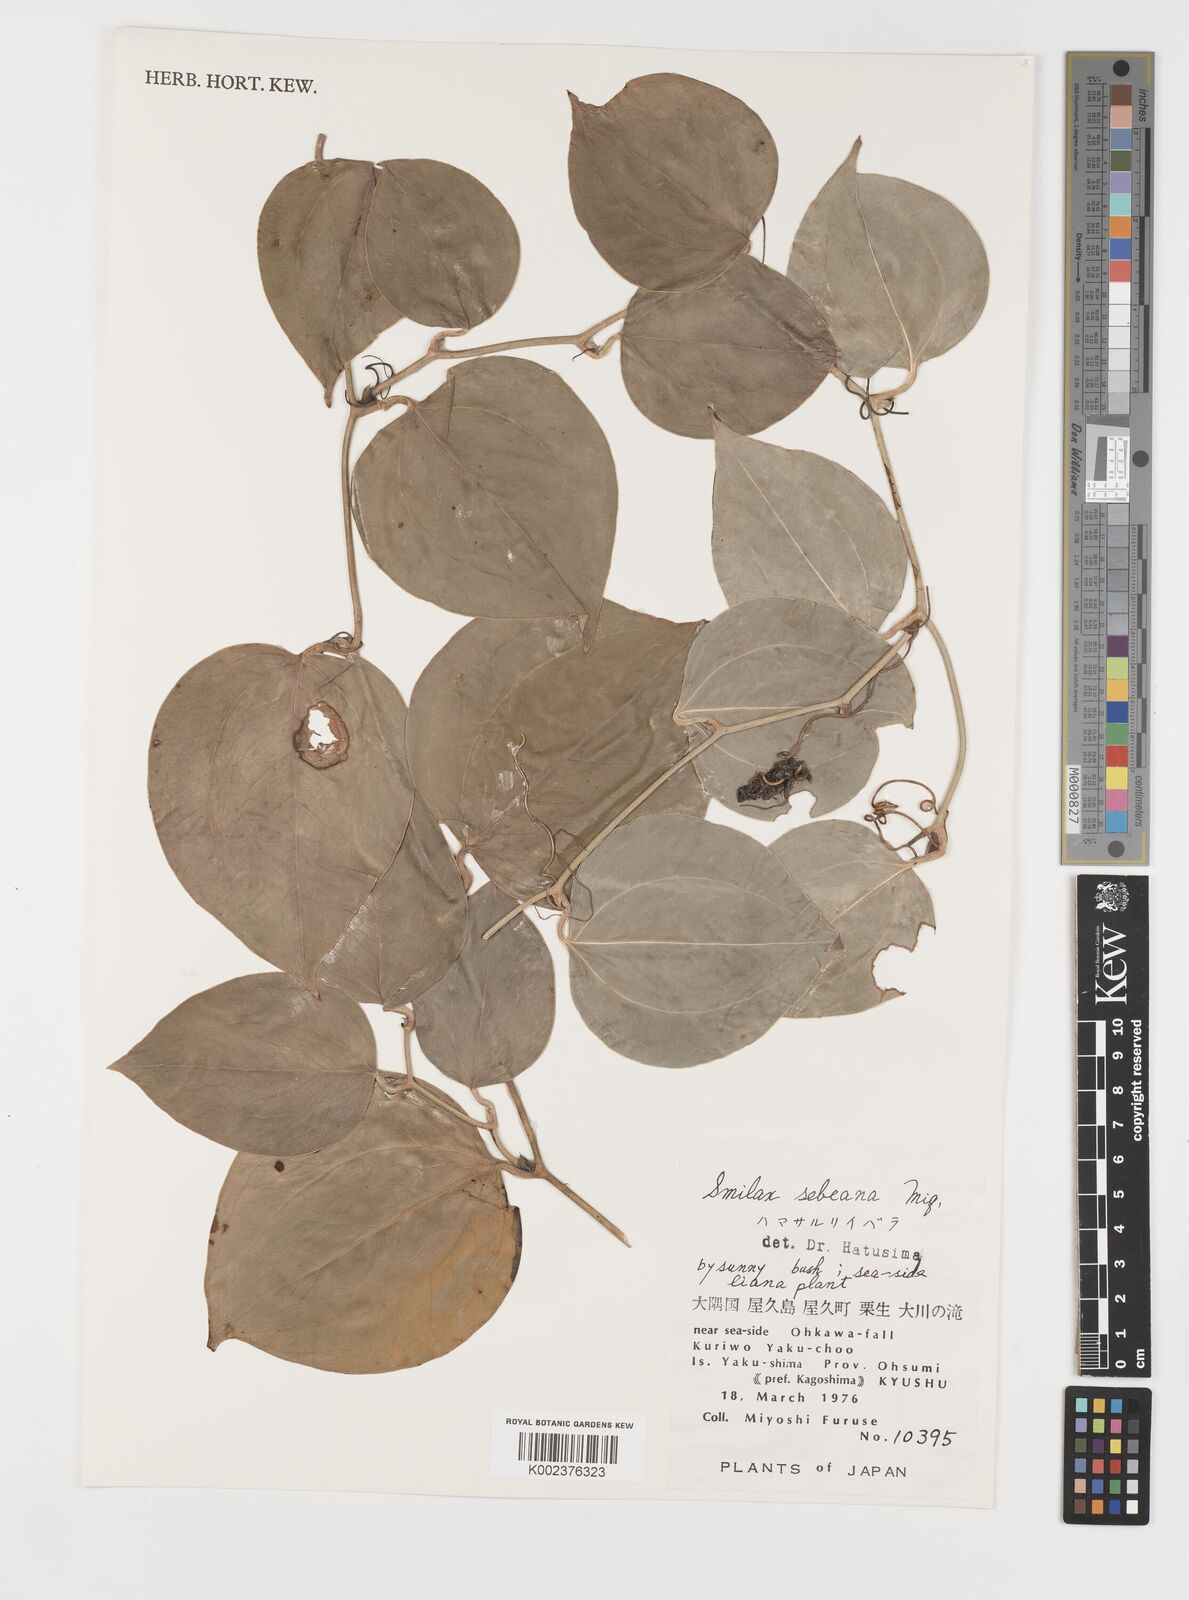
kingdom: Plantae
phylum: Tracheophyta
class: Liliopsida
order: Liliales
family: Smilacaceae
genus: Smilax
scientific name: Smilax sebeana
